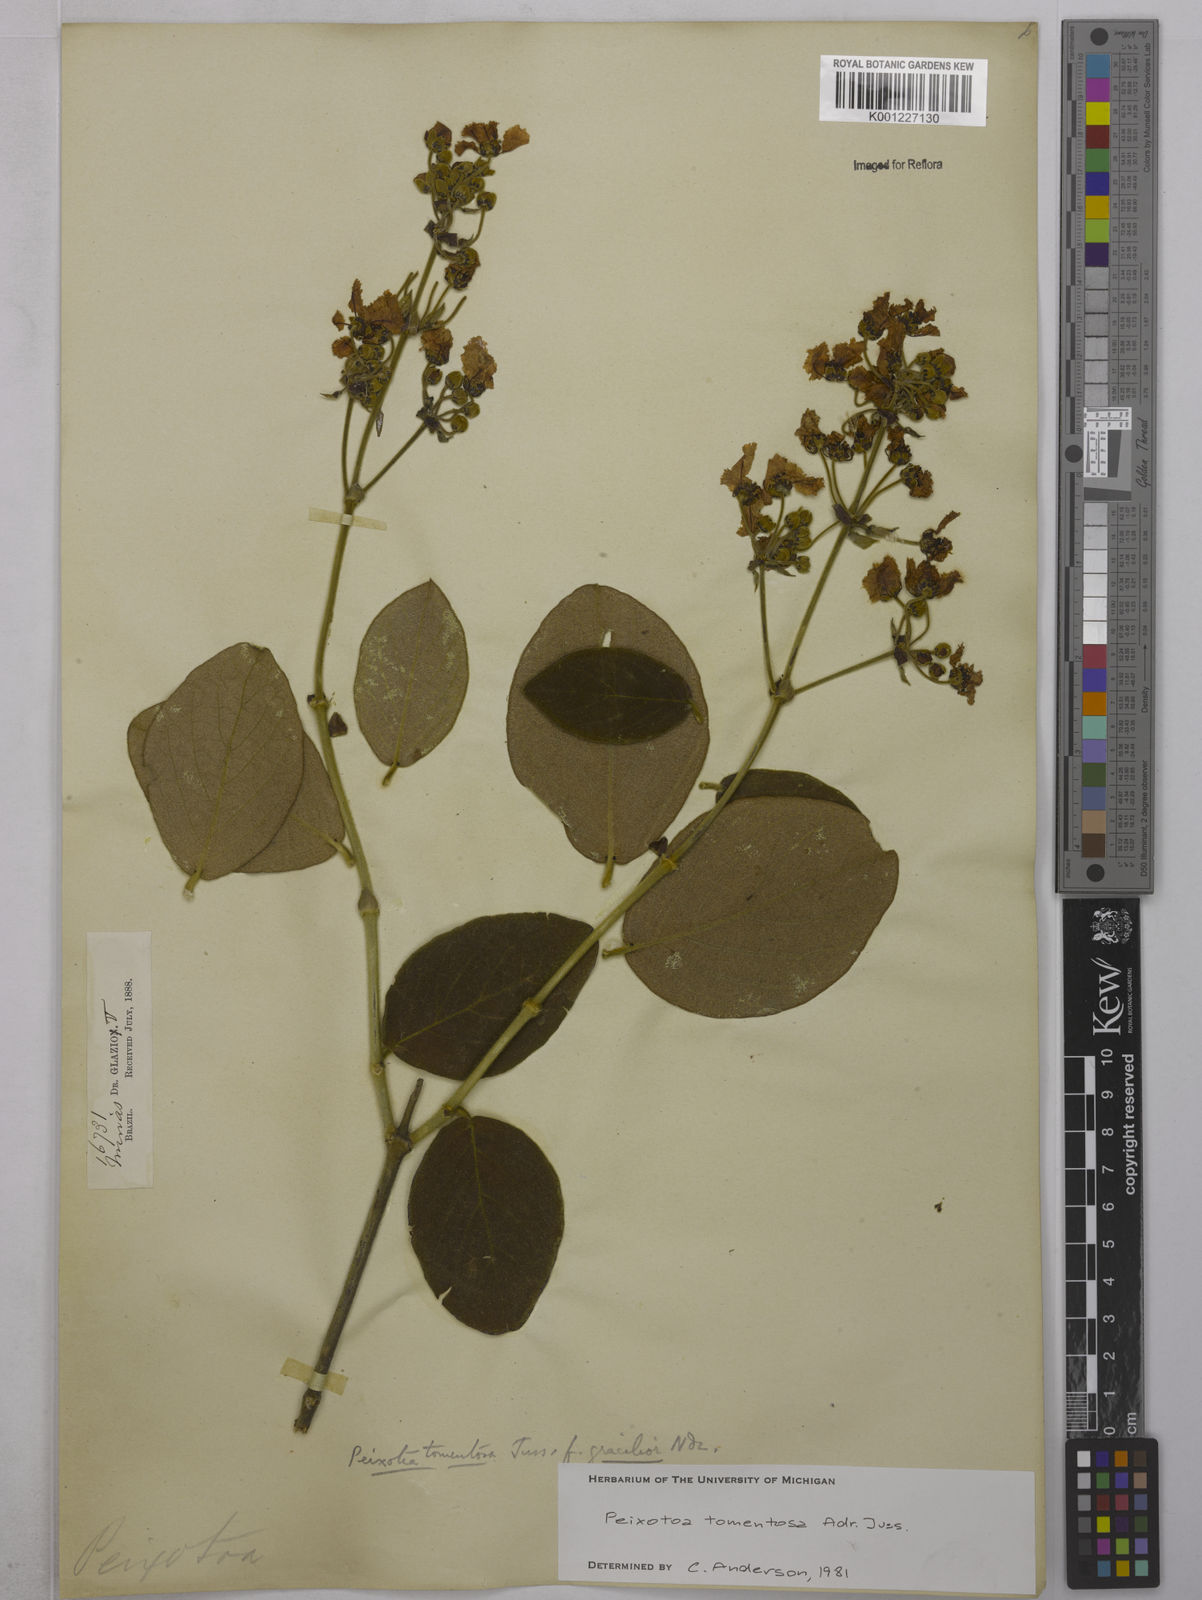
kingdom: Plantae
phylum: Tracheophyta
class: Magnoliopsida
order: Malpighiales
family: Malpighiaceae
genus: Peixotoa
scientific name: Peixotoa tomentosa
